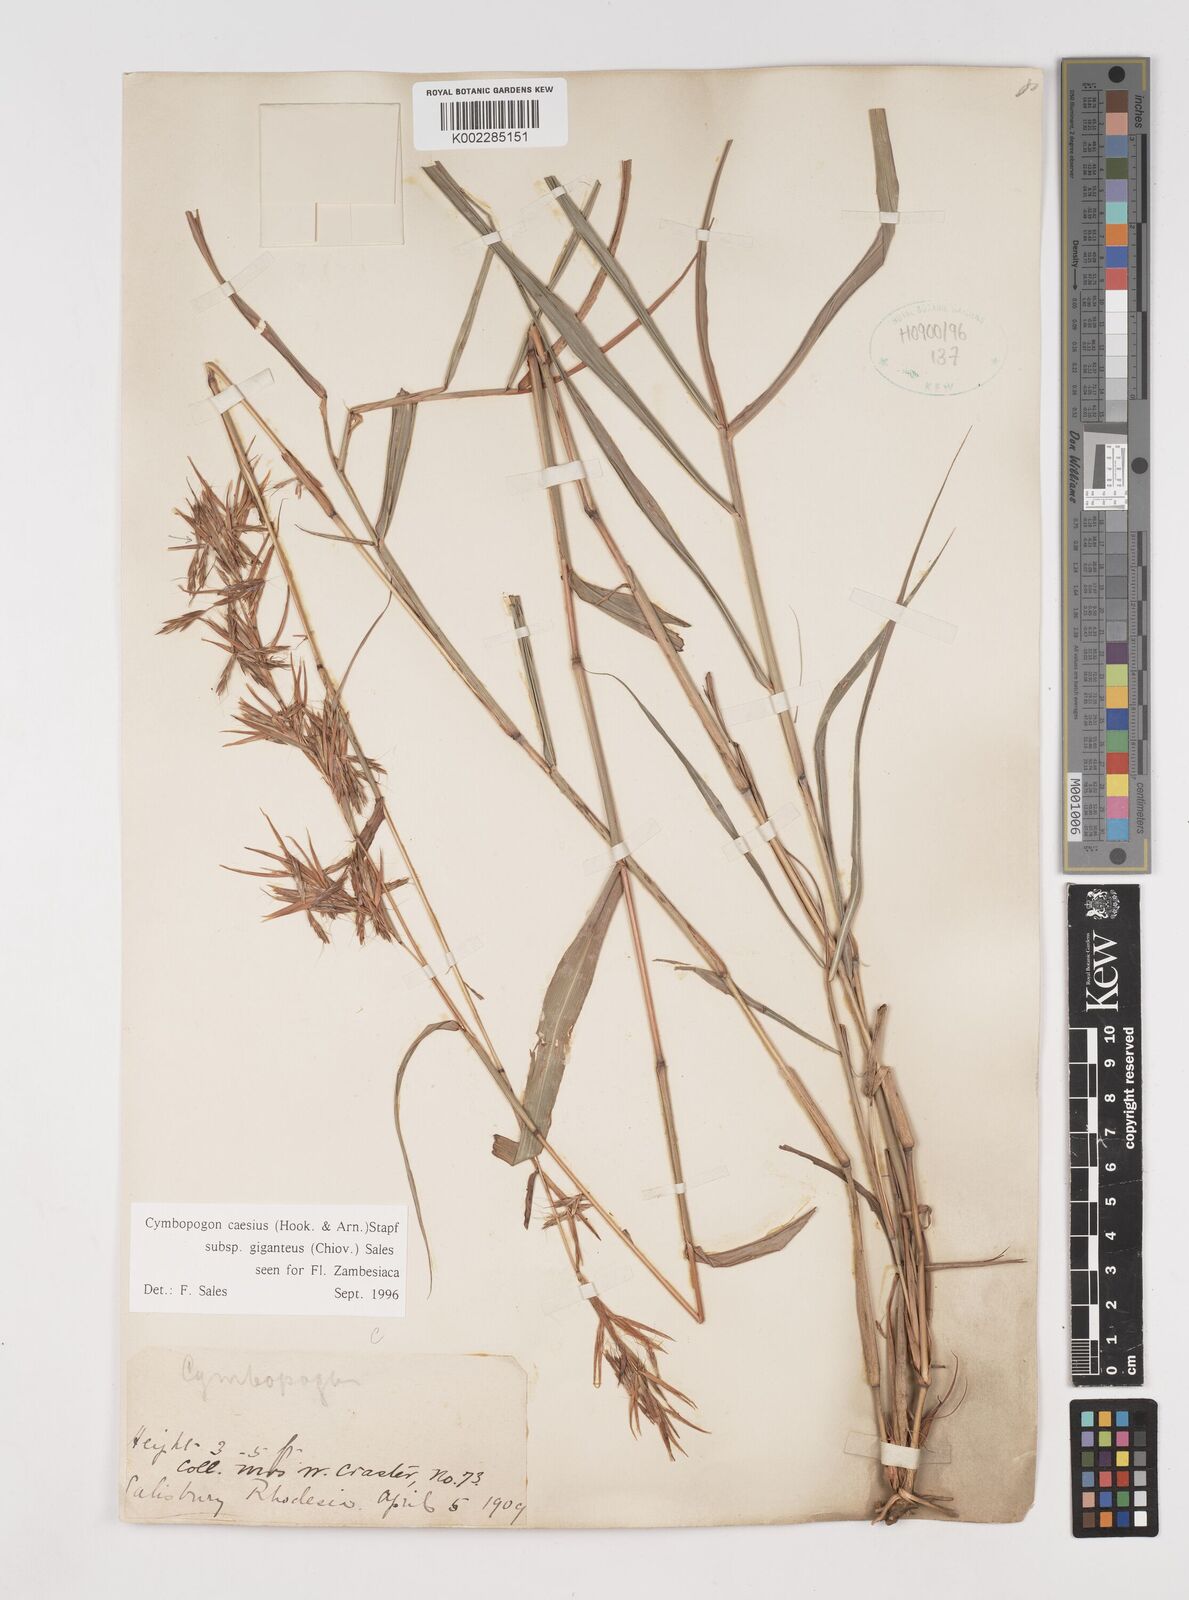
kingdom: Plantae
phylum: Tracheophyta
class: Liliopsida
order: Poales
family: Poaceae
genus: Cymbopogon
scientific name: Cymbopogon giganteus
